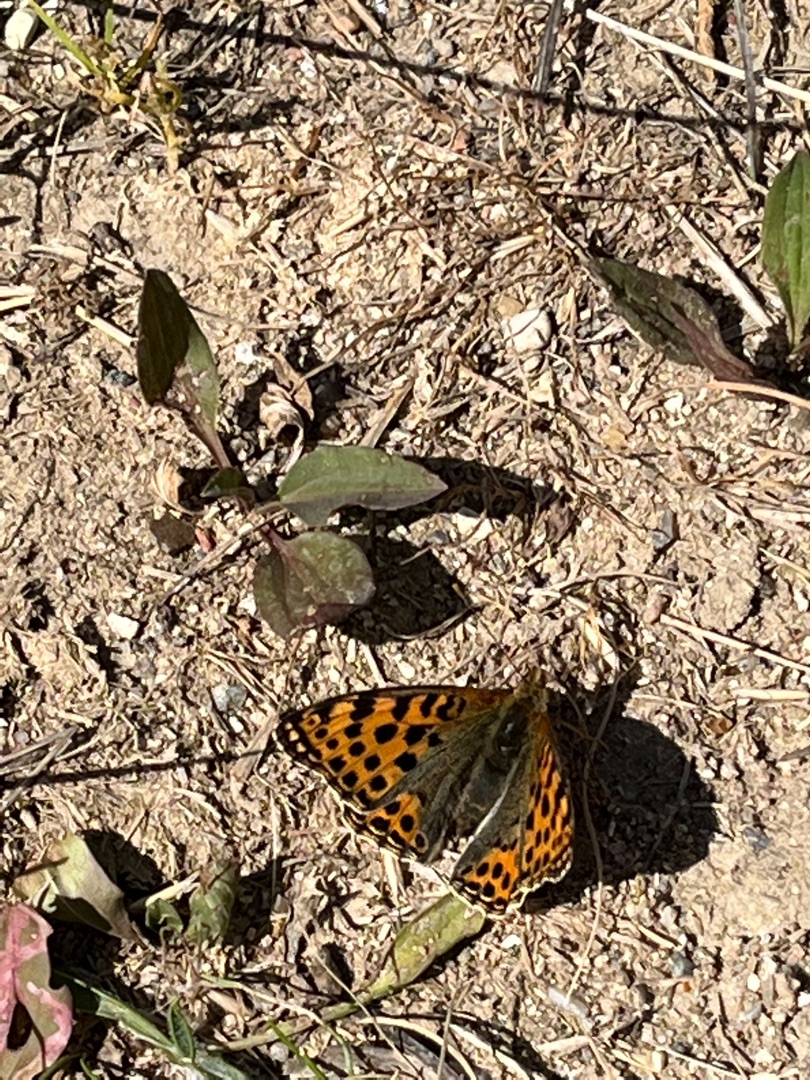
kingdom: Animalia
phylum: Arthropoda
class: Insecta
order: Lepidoptera
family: Nymphalidae
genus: Issoria
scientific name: Issoria lathonia
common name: Storplettet perlemorsommerfugl
